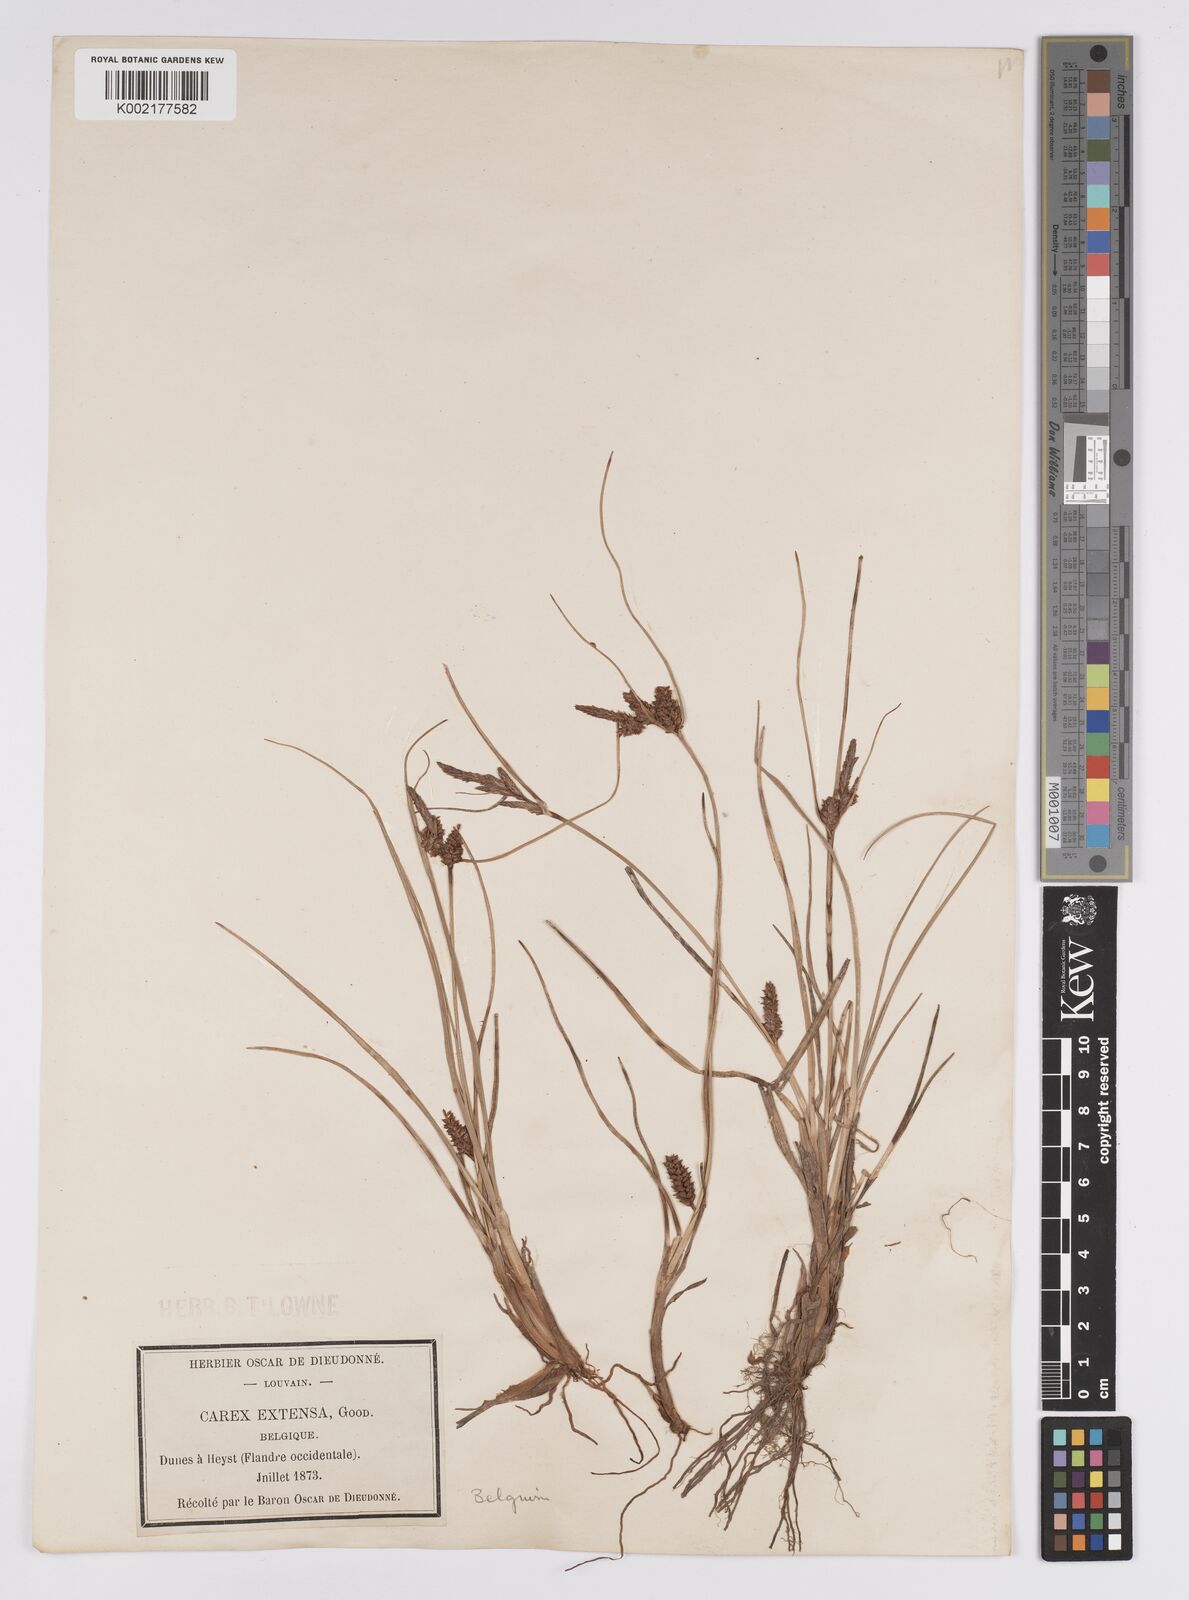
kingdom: Plantae
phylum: Tracheophyta
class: Liliopsida
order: Poales
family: Cyperaceae
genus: Carex
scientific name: Carex extensa
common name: Long-bracted sedge
